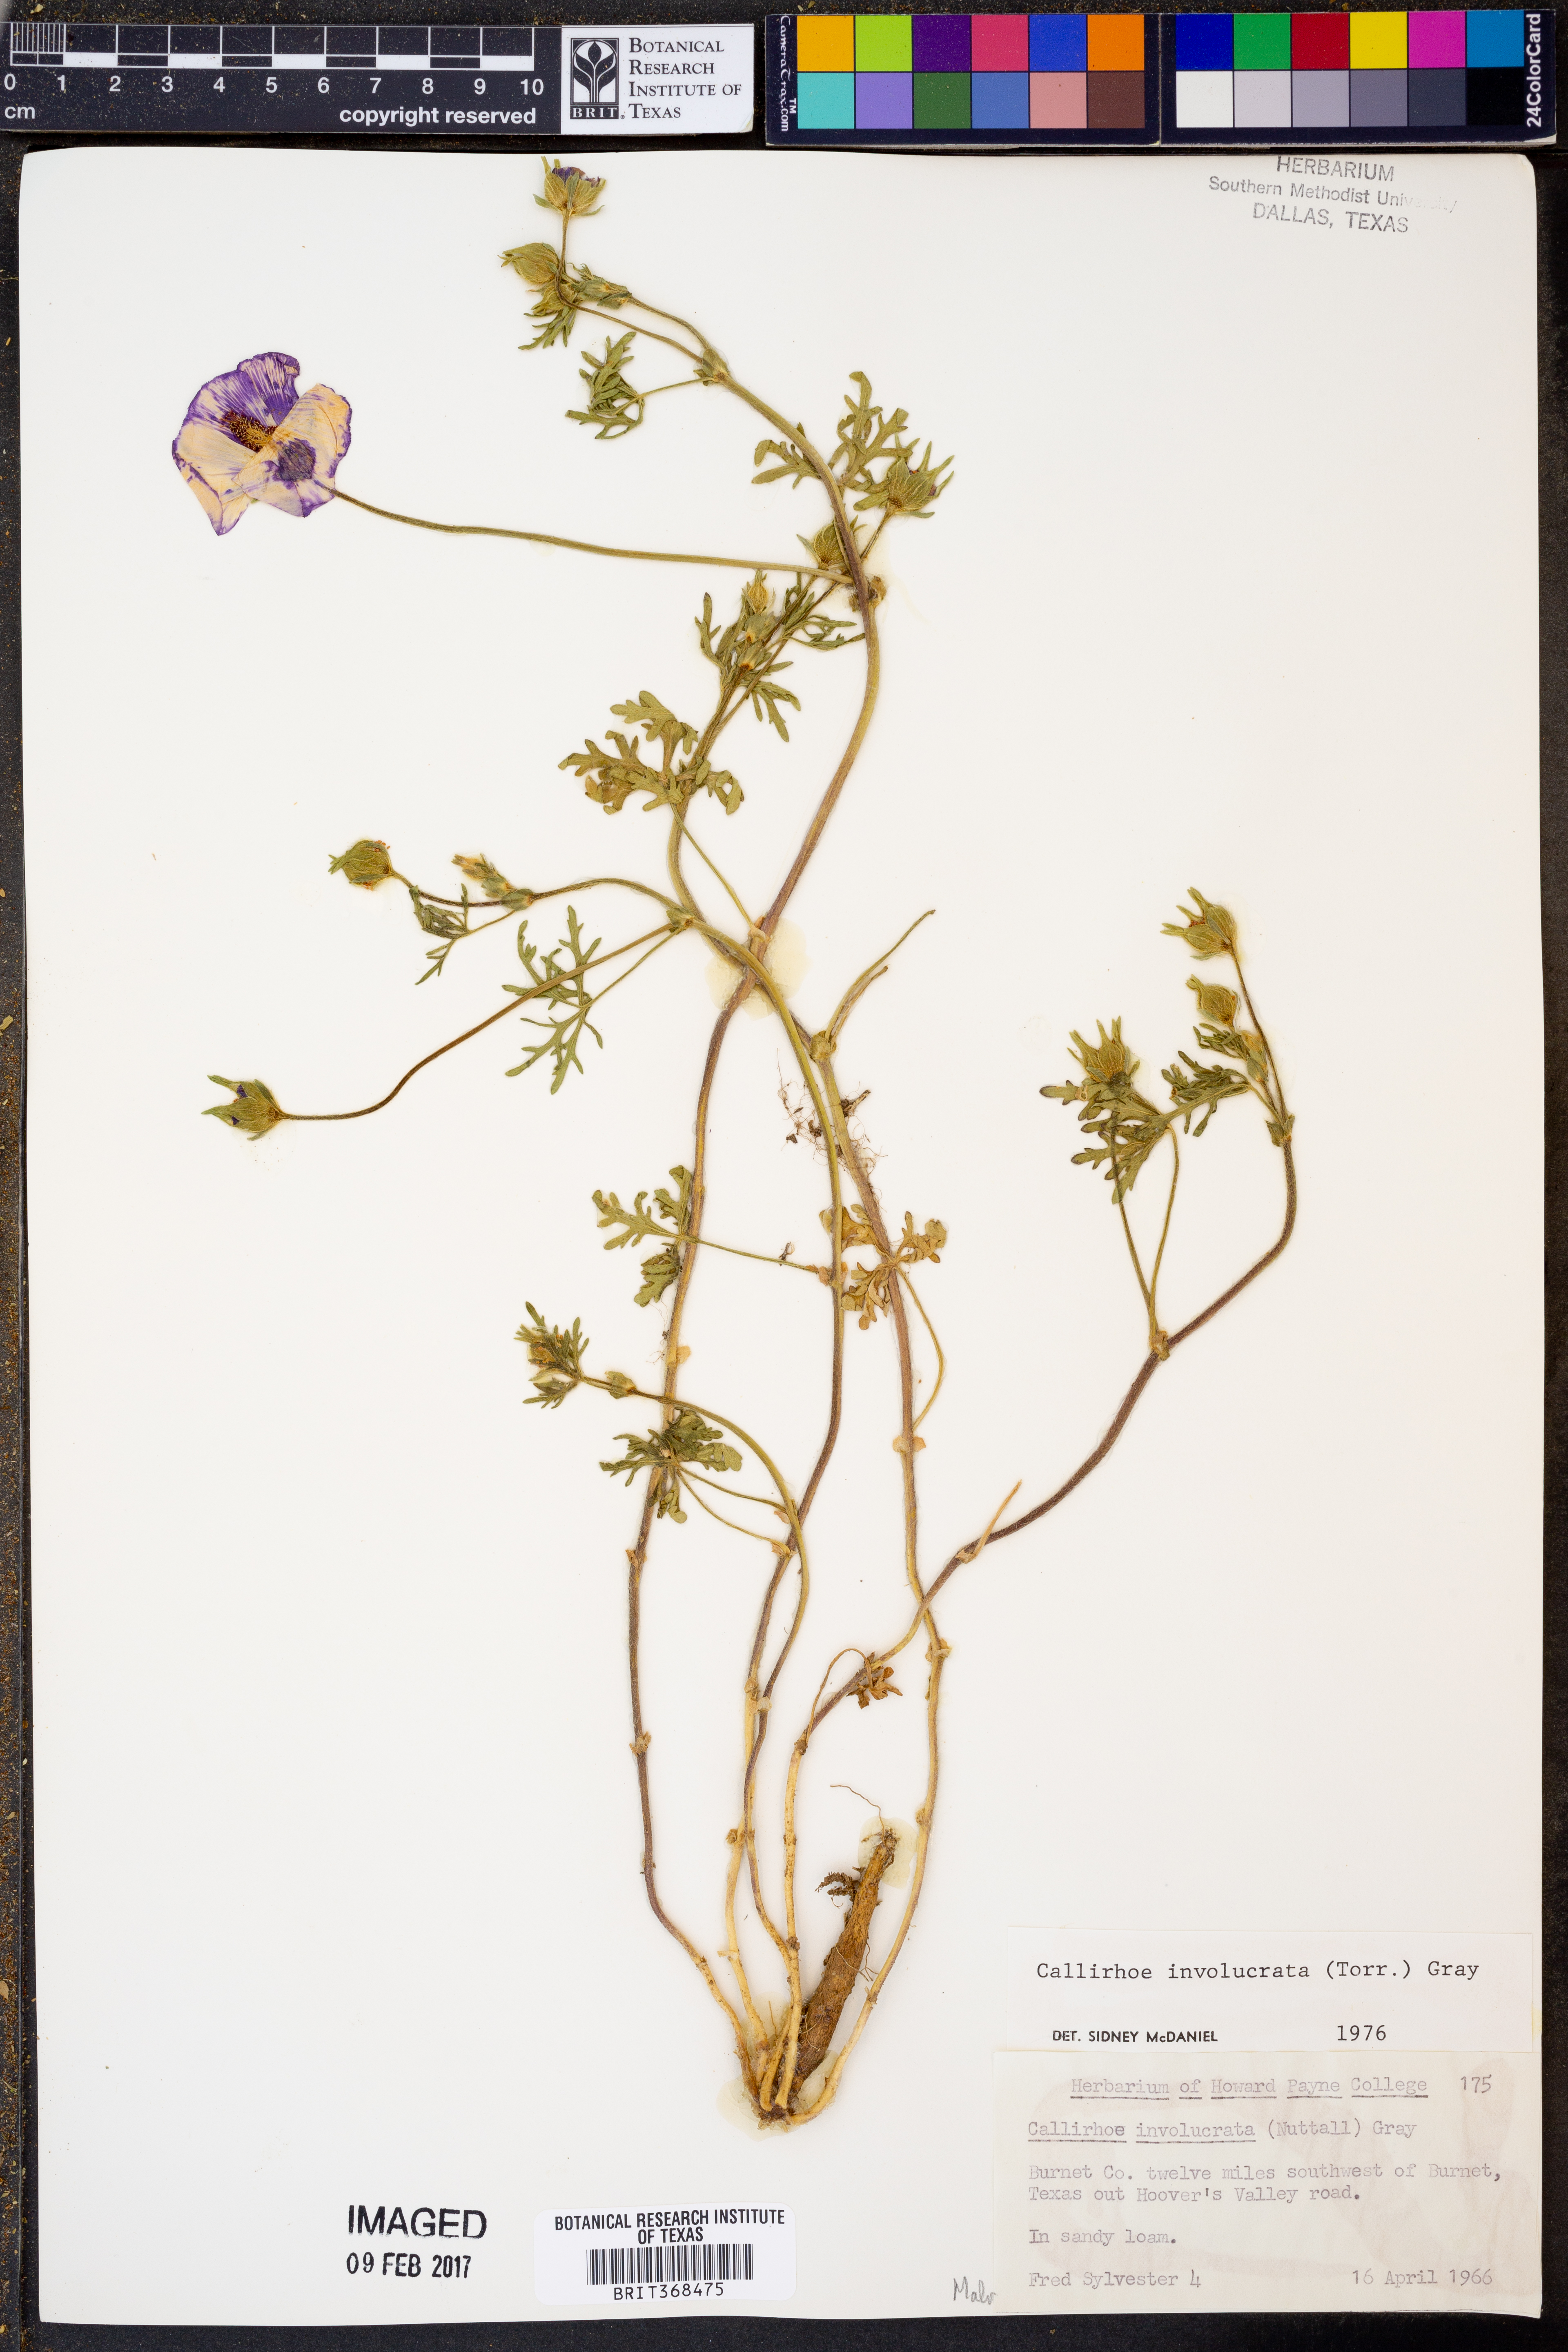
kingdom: Plantae
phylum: Tracheophyta
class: Magnoliopsida
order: Malvales
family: Malvaceae
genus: Callirhoe
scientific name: Callirhoe involucrata
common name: Purple poppy-mallow
